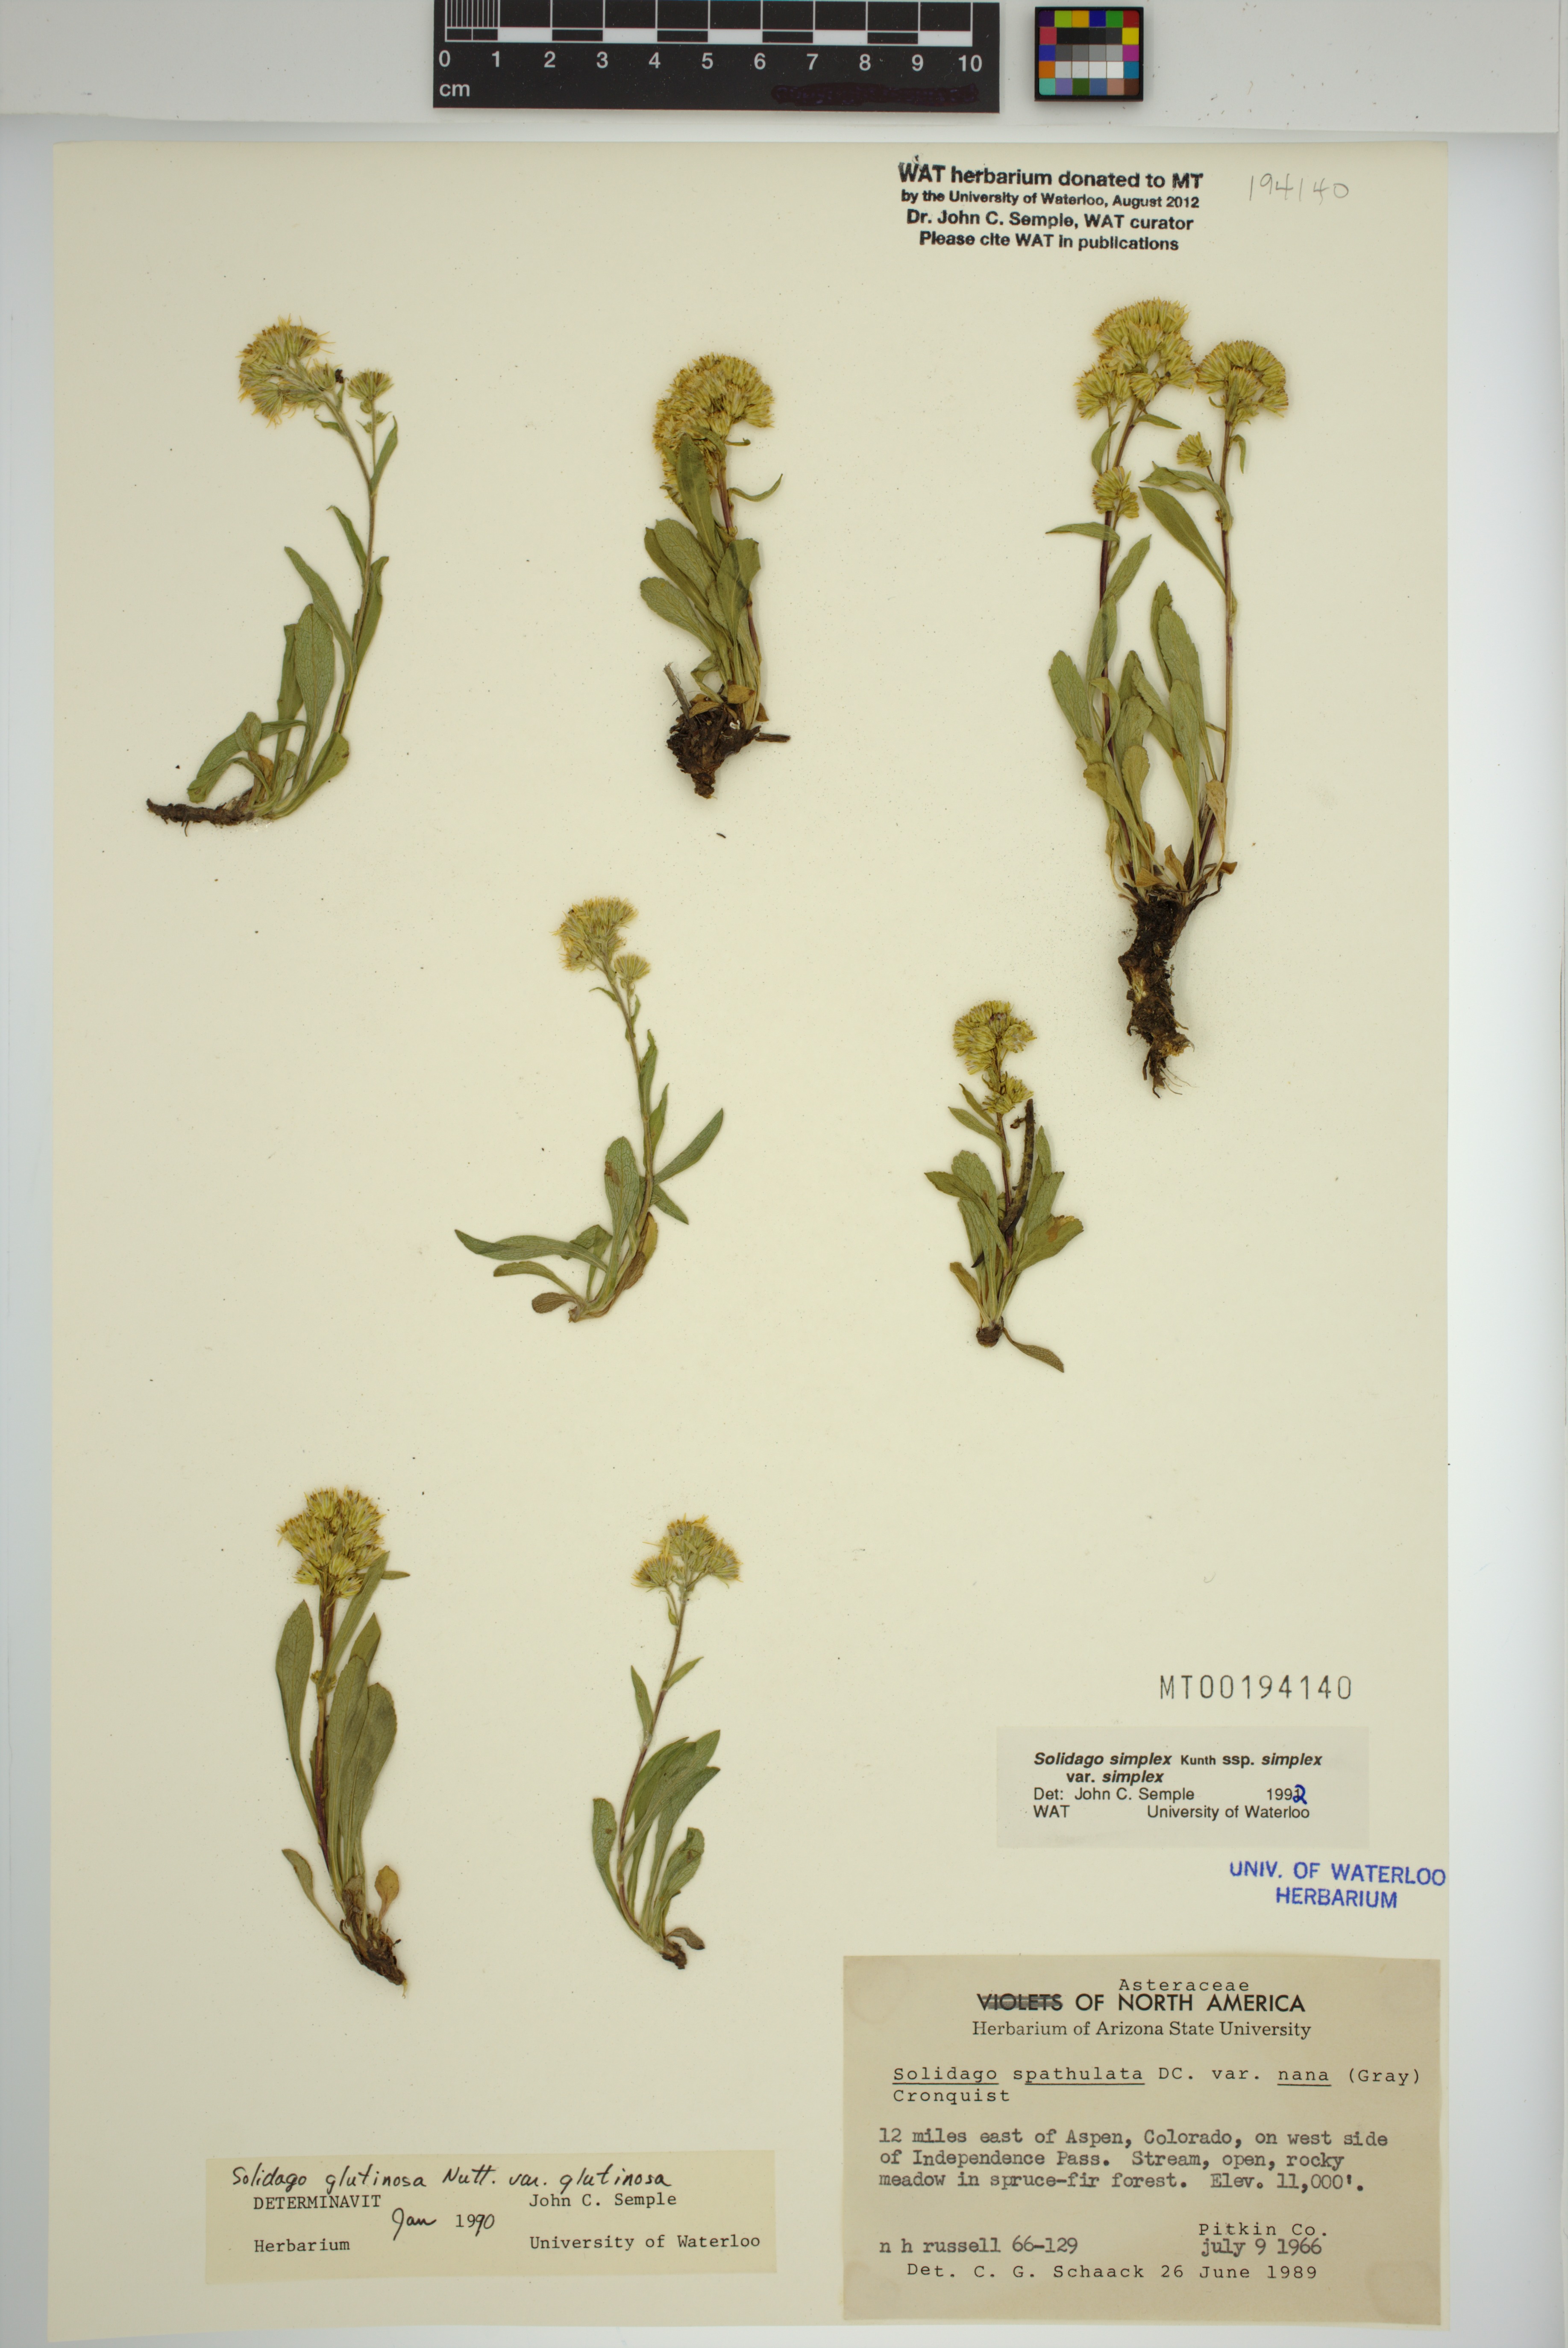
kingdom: Plantae
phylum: Tracheophyta
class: Magnoliopsida
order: Asterales
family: Asteraceae
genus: Solidago
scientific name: Solidago glutinosa
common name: Decumbent goldenrod
